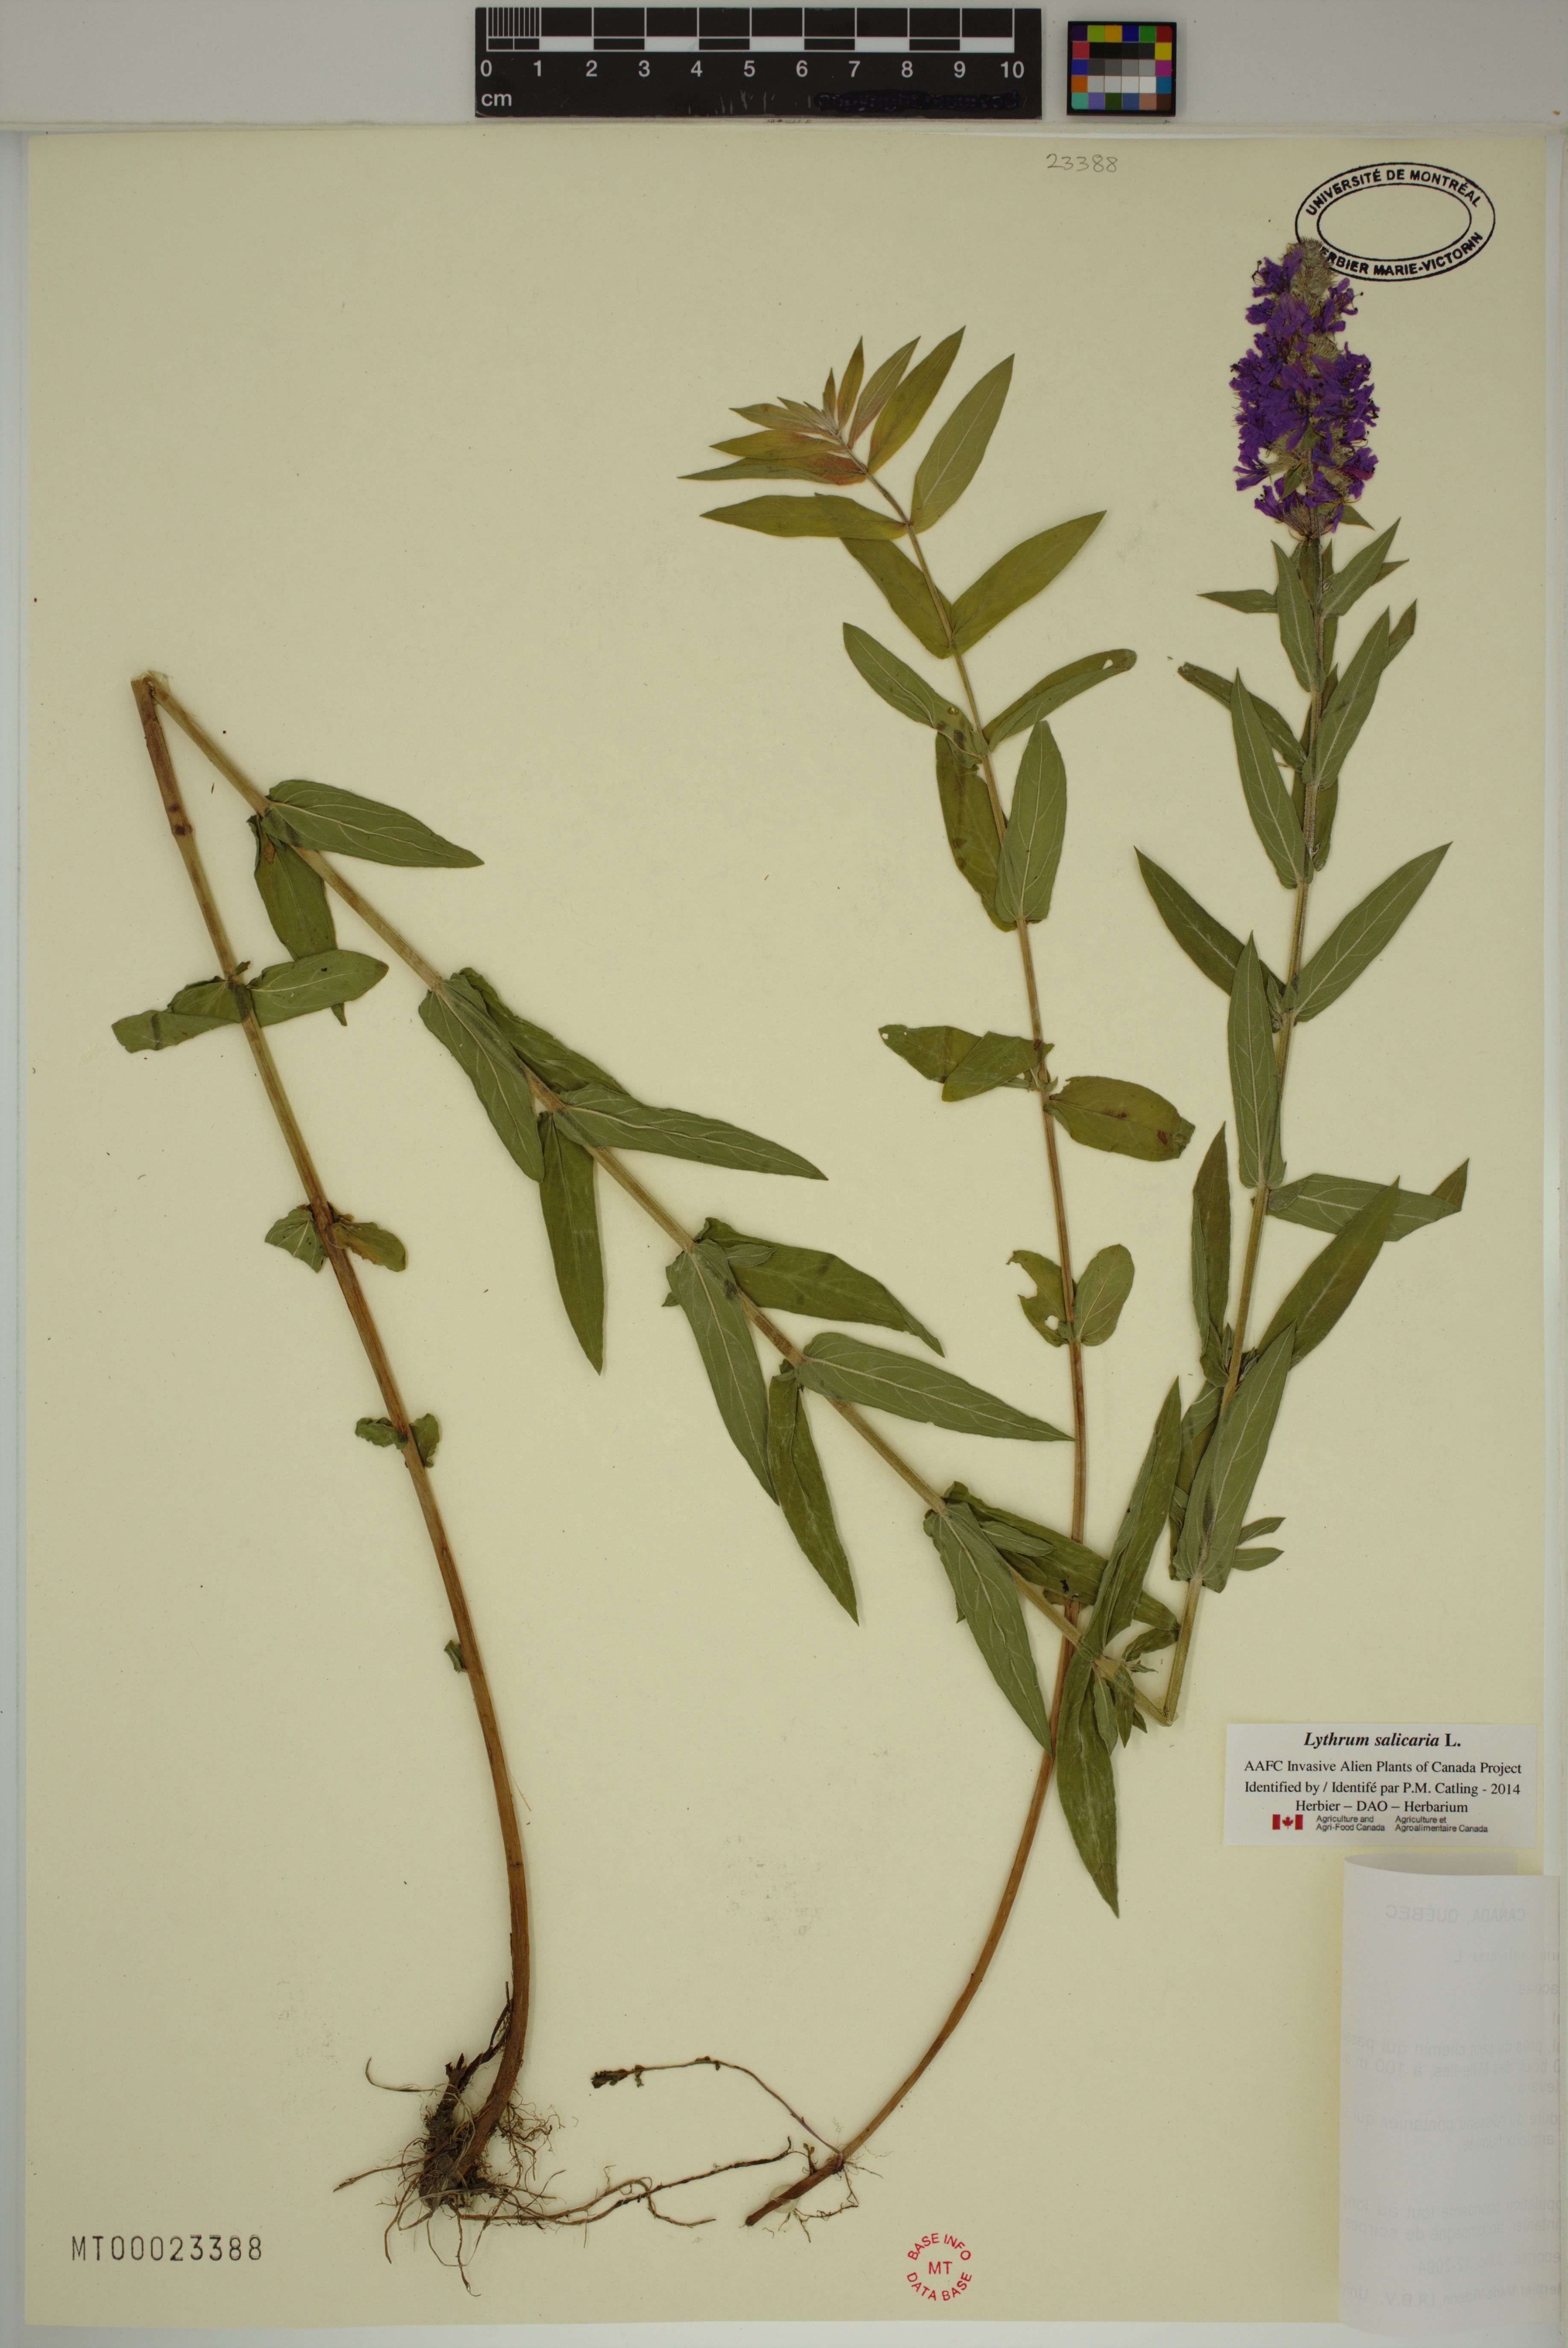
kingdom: Plantae
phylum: Tracheophyta
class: Magnoliopsida
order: Myrtales
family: Lythraceae
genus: Lythrum
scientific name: Lythrum salicaria
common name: Purple loosestrife
